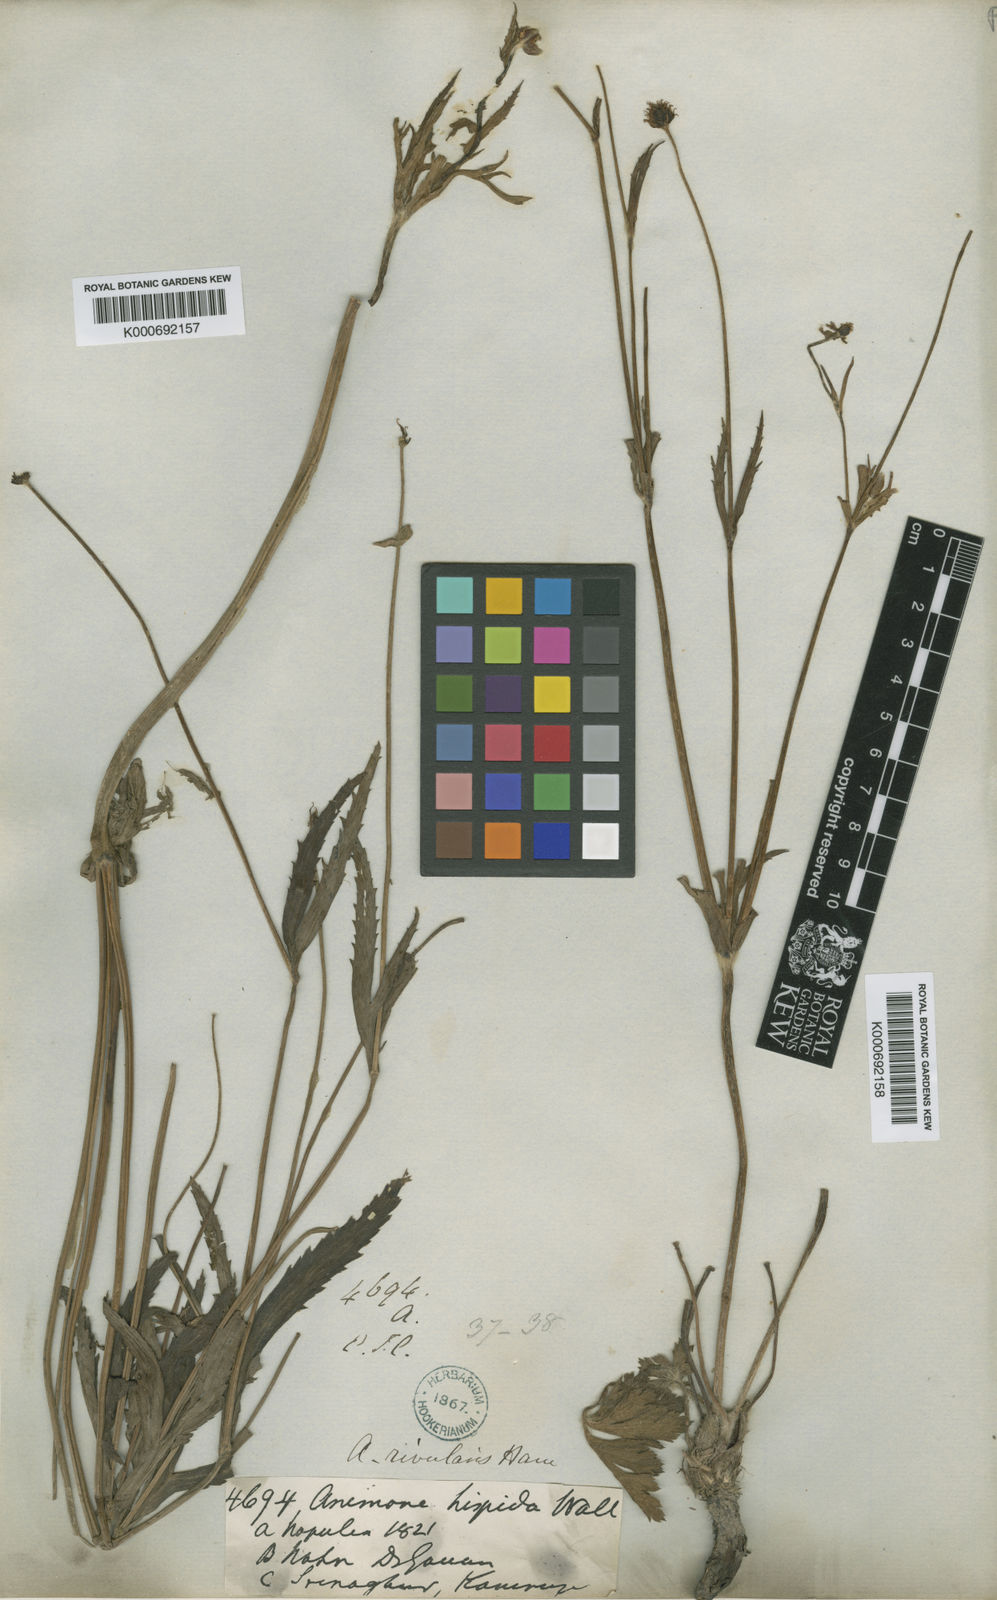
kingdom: Plantae
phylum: Tracheophyta
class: Magnoliopsida
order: Ranunculales
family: Ranunculaceae
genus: Eriocapitella
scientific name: Eriocapitella rivularis
